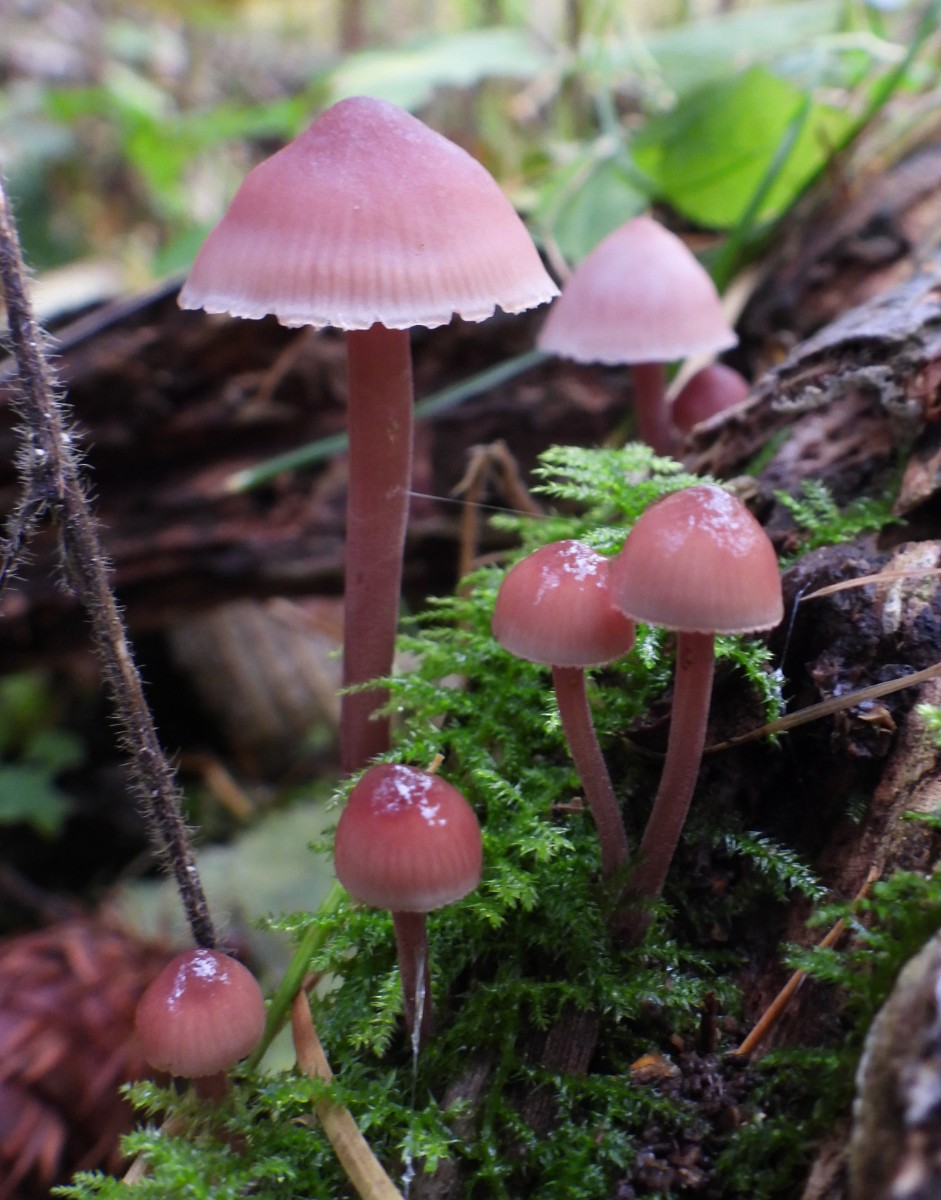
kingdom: Fungi
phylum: Basidiomycota
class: Agaricomycetes
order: Agaricales
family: Mycenaceae
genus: Mycena
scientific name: Mycena haematopus
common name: blødende huesvamp
